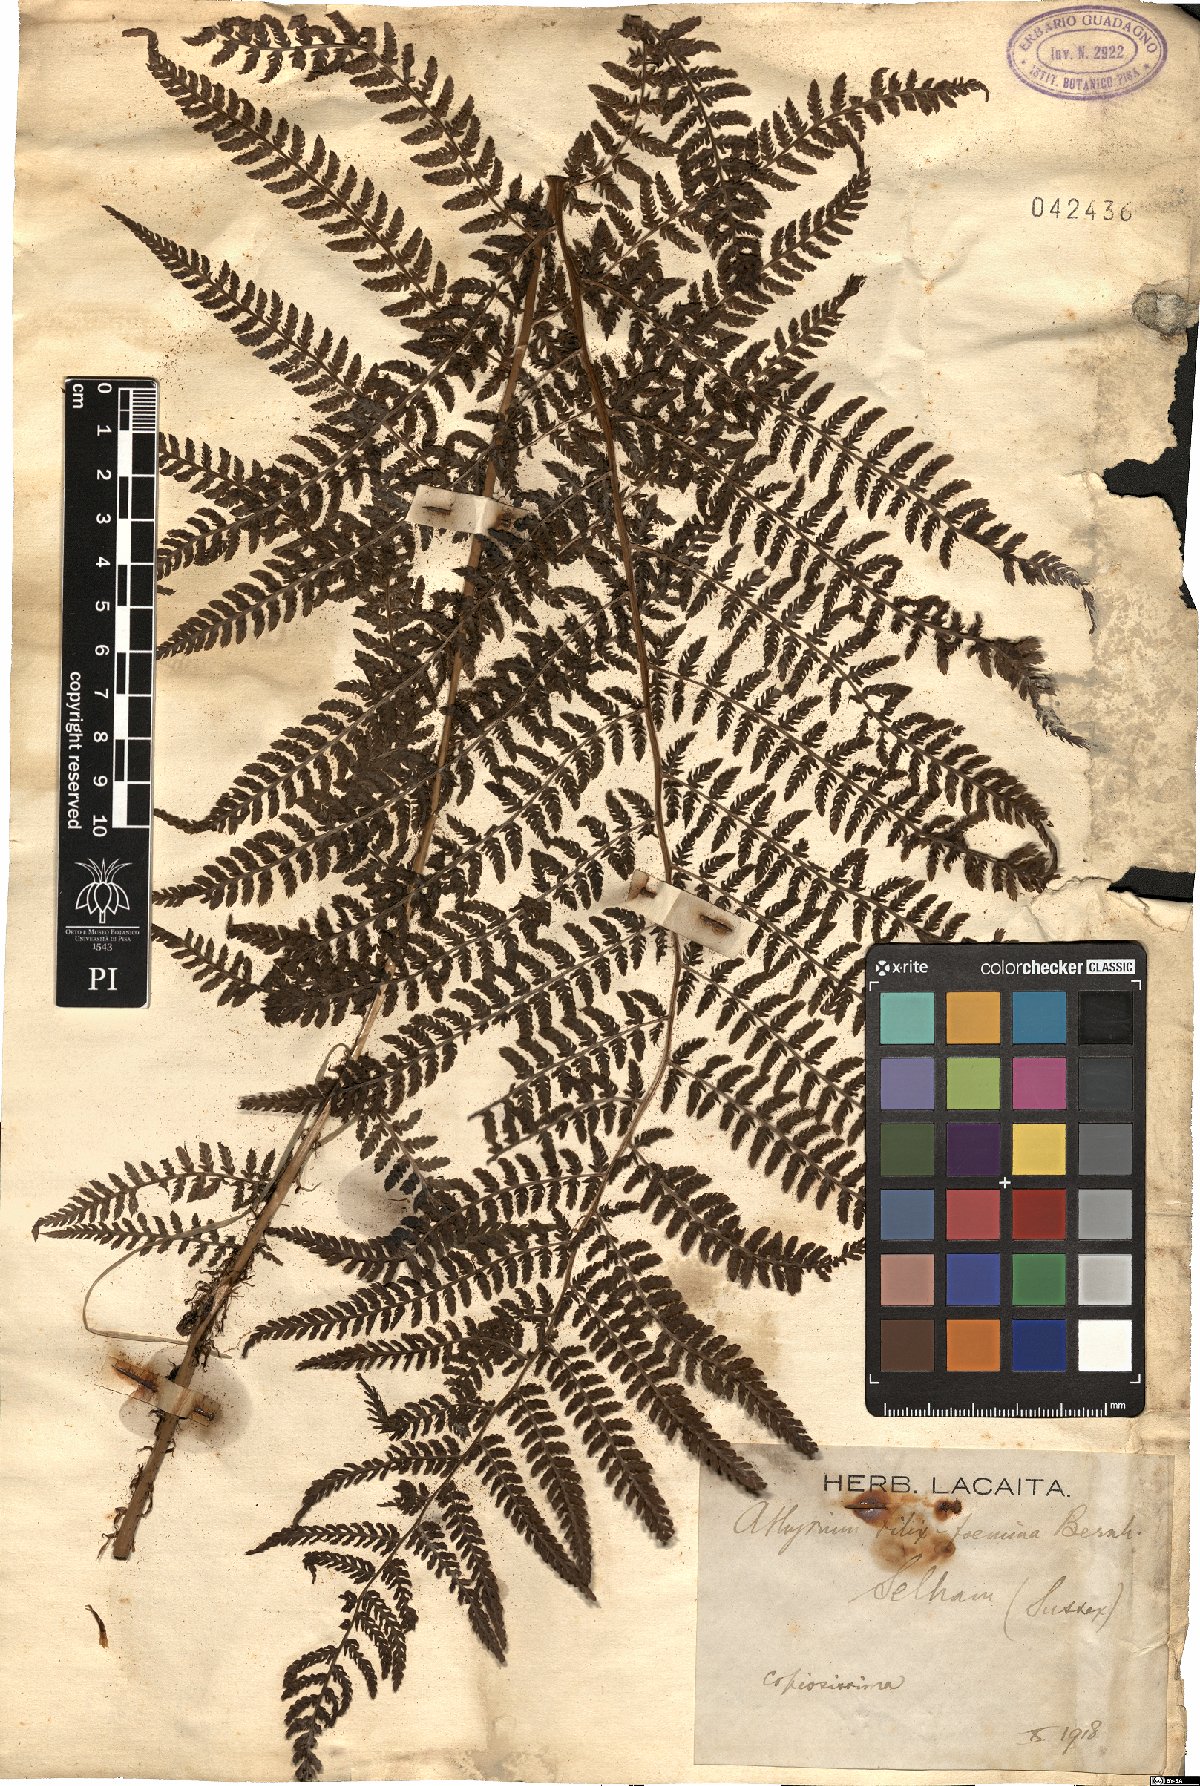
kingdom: Plantae
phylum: Tracheophyta
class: Polypodiopsida
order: Polypodiales
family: Athyriaceae
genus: Athyrium
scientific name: Athyrium filix-femina
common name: Lady fern
